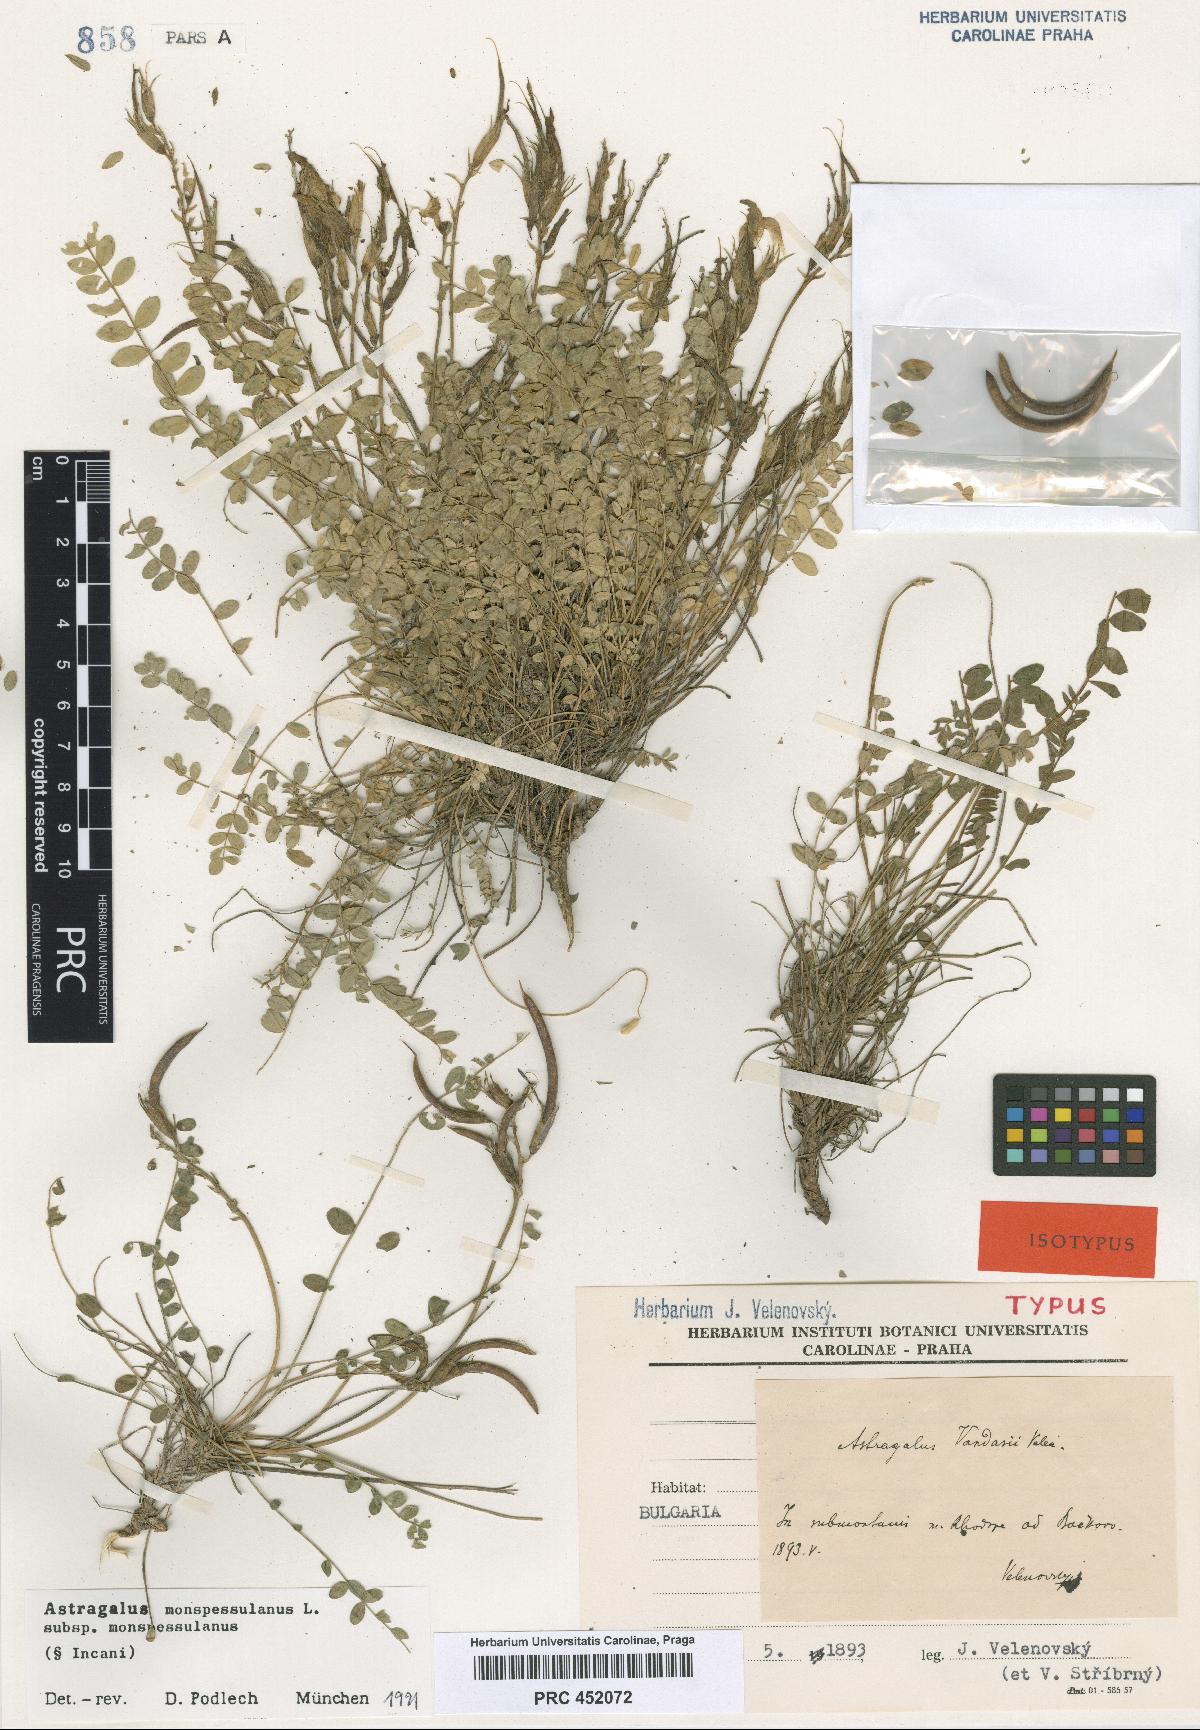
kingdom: Plantae
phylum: Tracheophyta
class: Magnoliopsida
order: Fabales
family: Fabaceae
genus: Astragalus
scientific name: Astragalus monspessulanus
